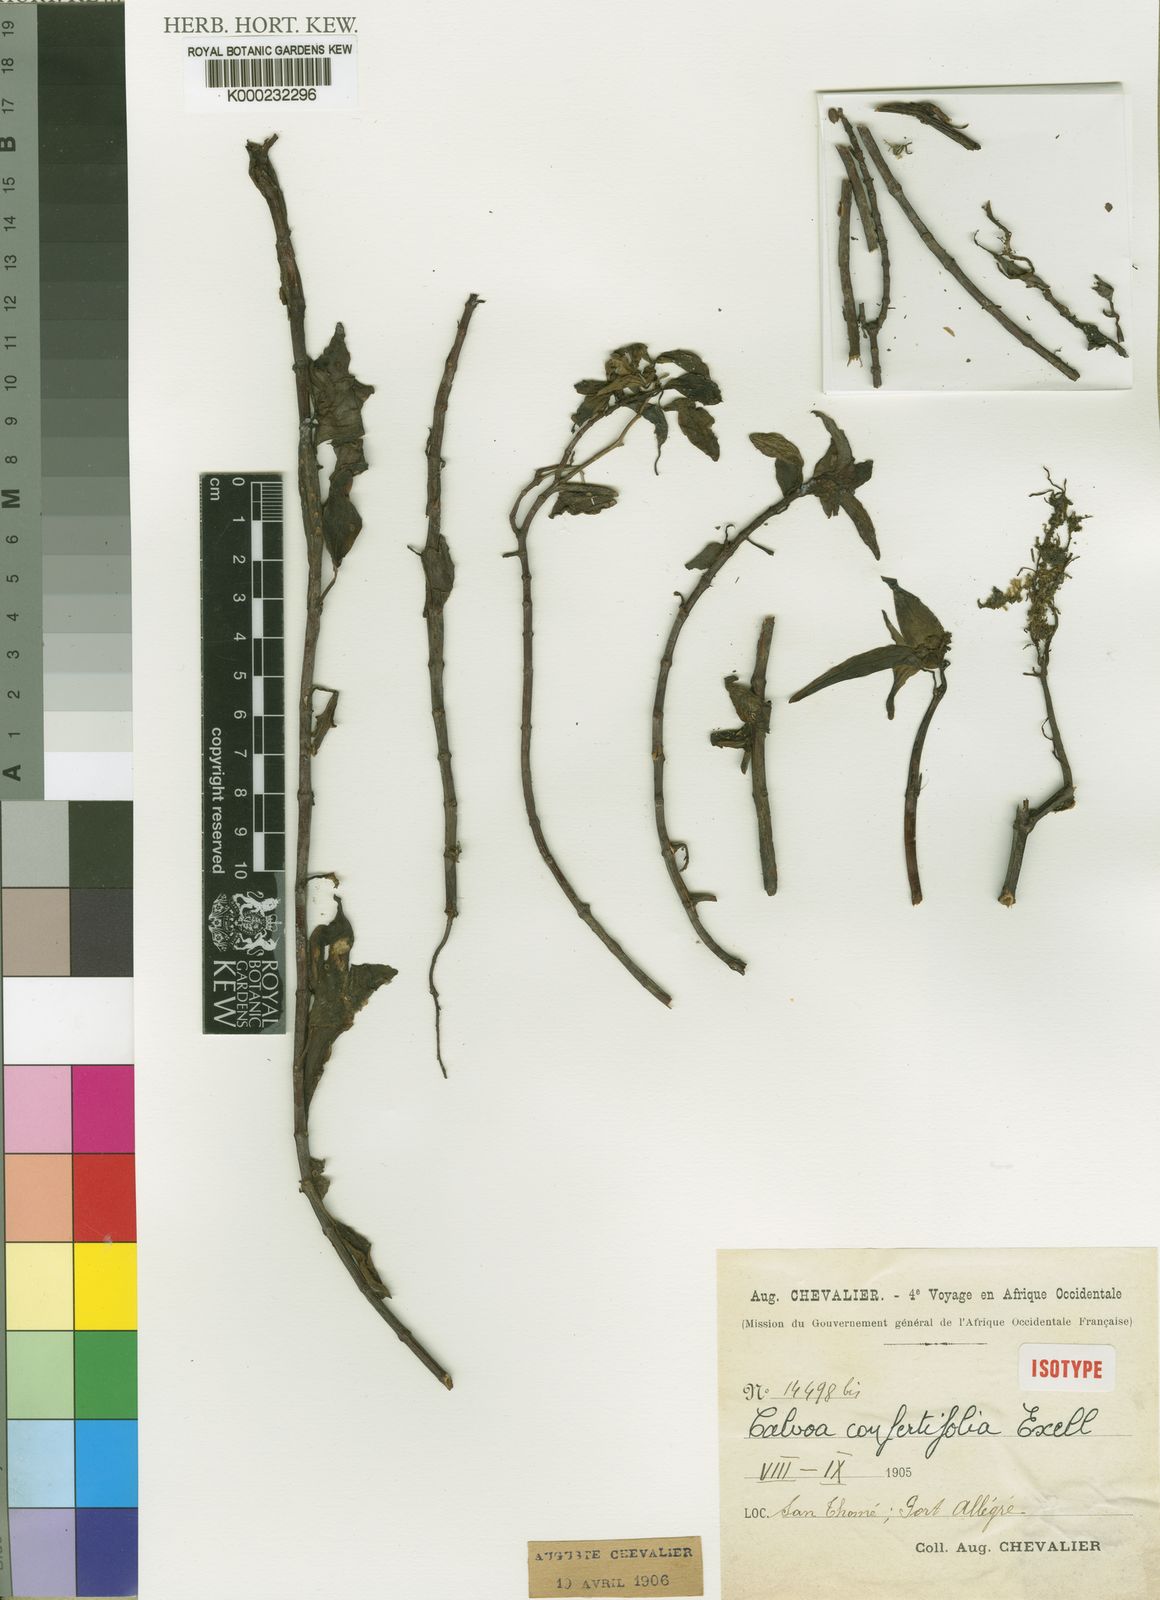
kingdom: Plantae
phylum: Tracheophyta
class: Magnoliopsida
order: Myrtales
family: Melastomataceae
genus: Calvoa
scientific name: Calvoa confertifolia
